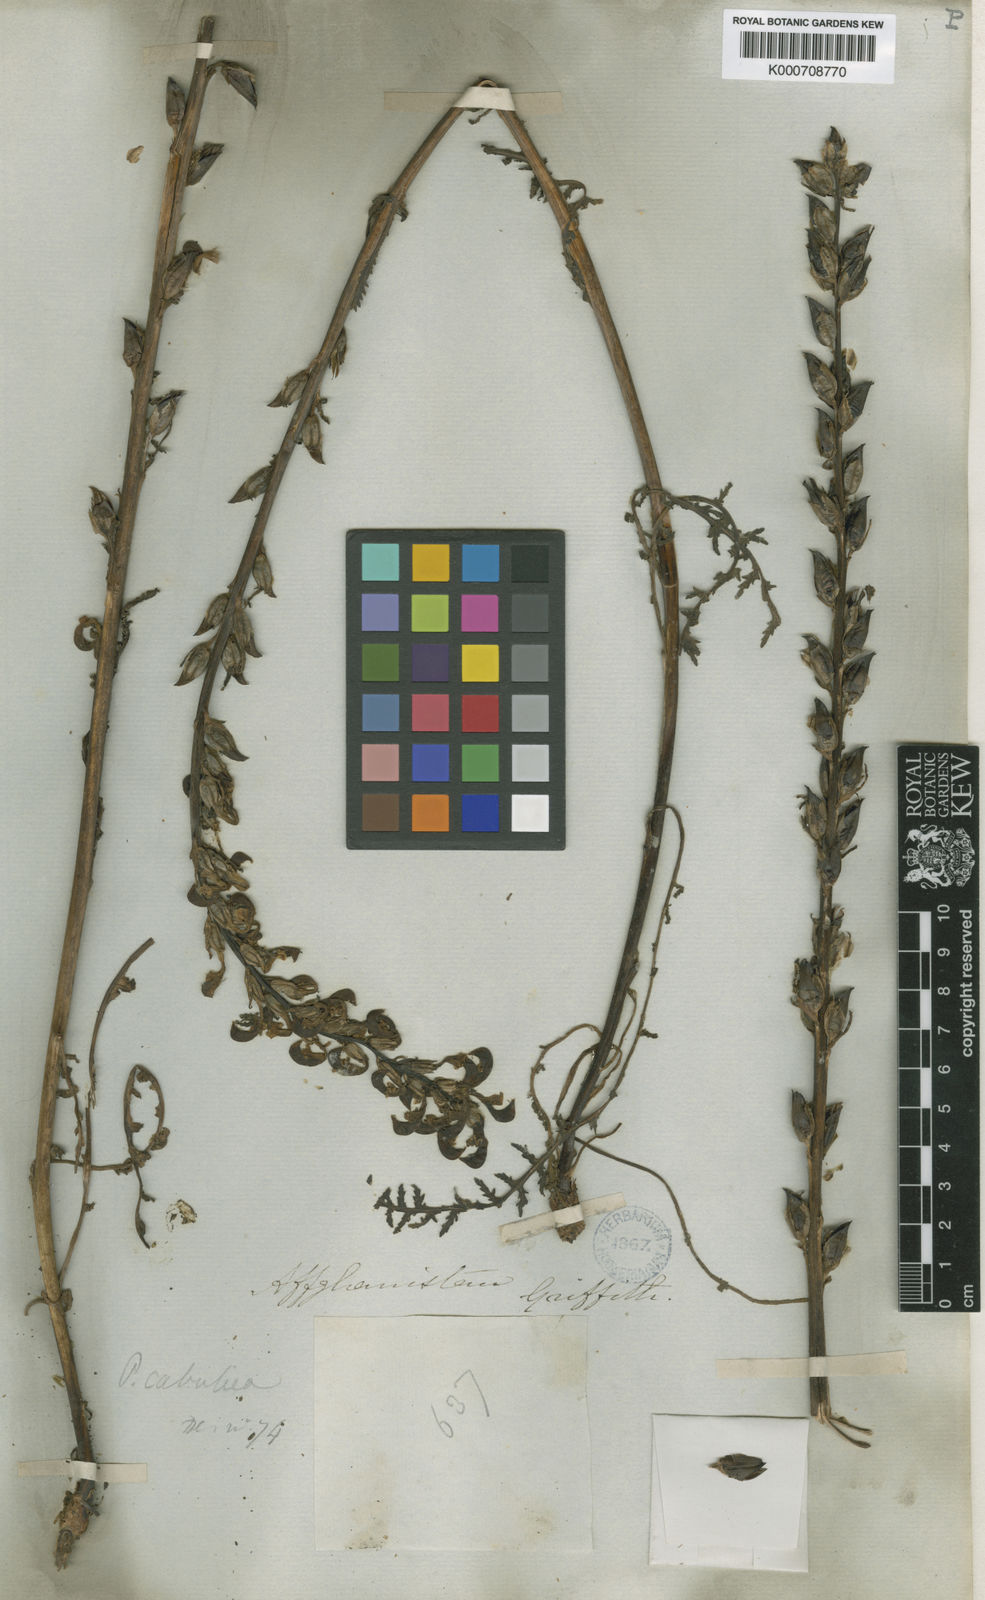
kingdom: Plantae
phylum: Tracheophyta
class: Magnoliopsida
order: Lamiales
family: Orobanchaceae
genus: Pedicularis
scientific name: Pedicularis cabulica
